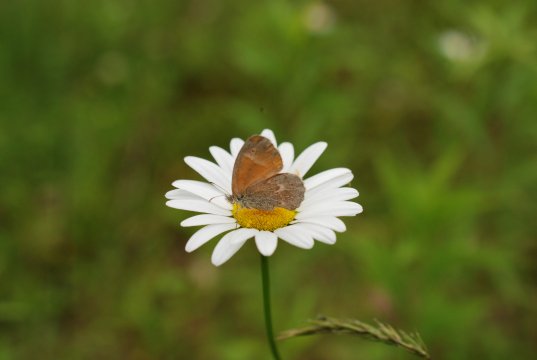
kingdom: Animalia
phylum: Arthropoda
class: Insecta
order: Lepidoptera
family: Nymphalidae
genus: Coenonympha
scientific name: Coenonympha tullia
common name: Large Heath
